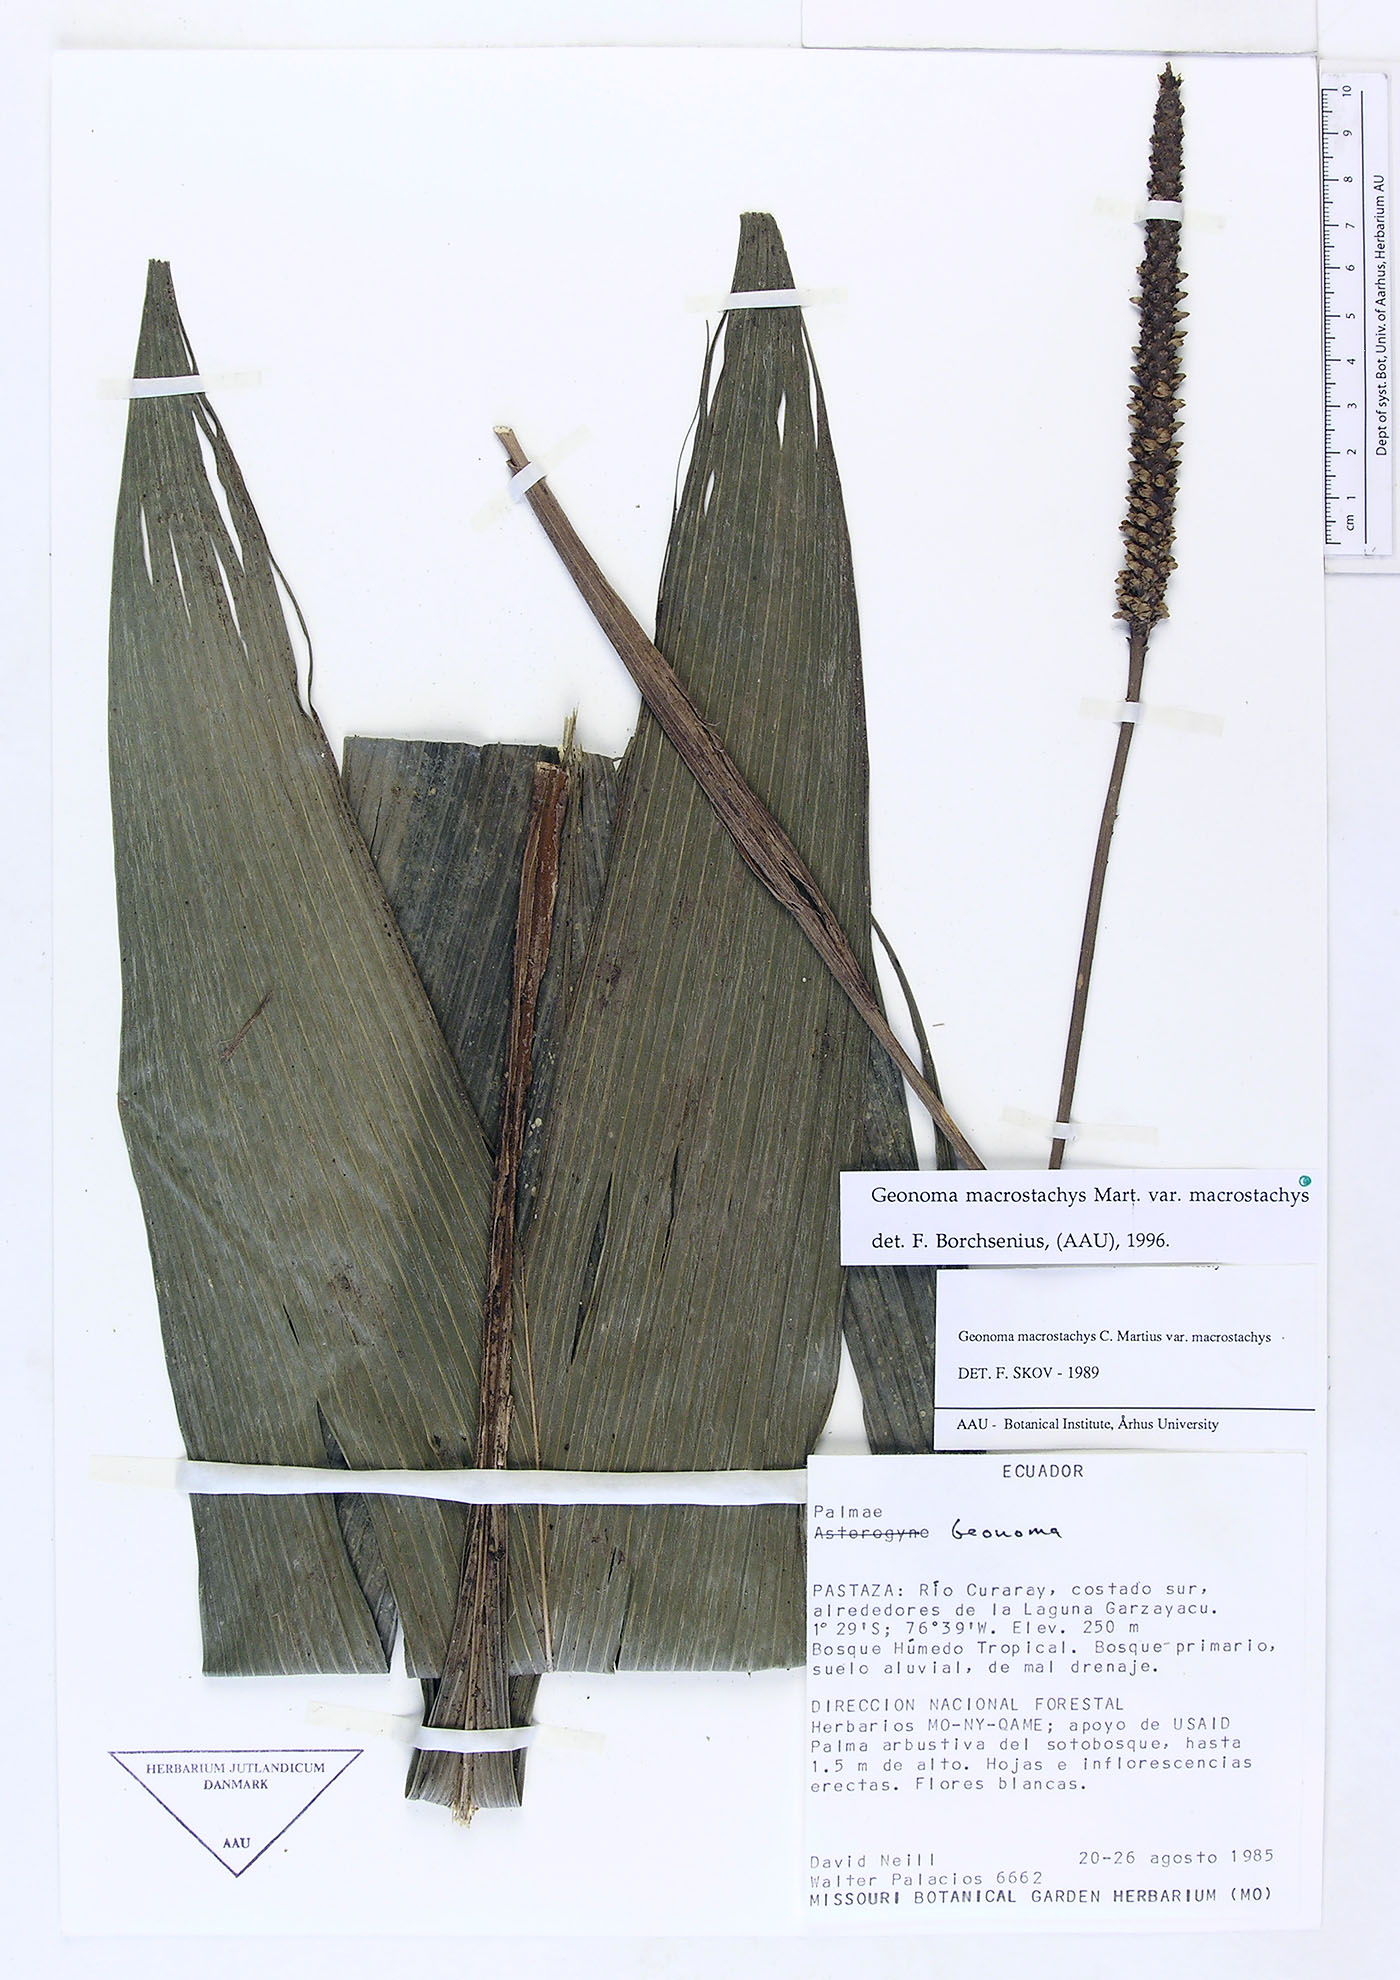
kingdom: Plantae
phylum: Tracheophyta
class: Liliopsida
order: Arecales
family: Arecaceae
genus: Geonoma
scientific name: Geonoma macrostachys
